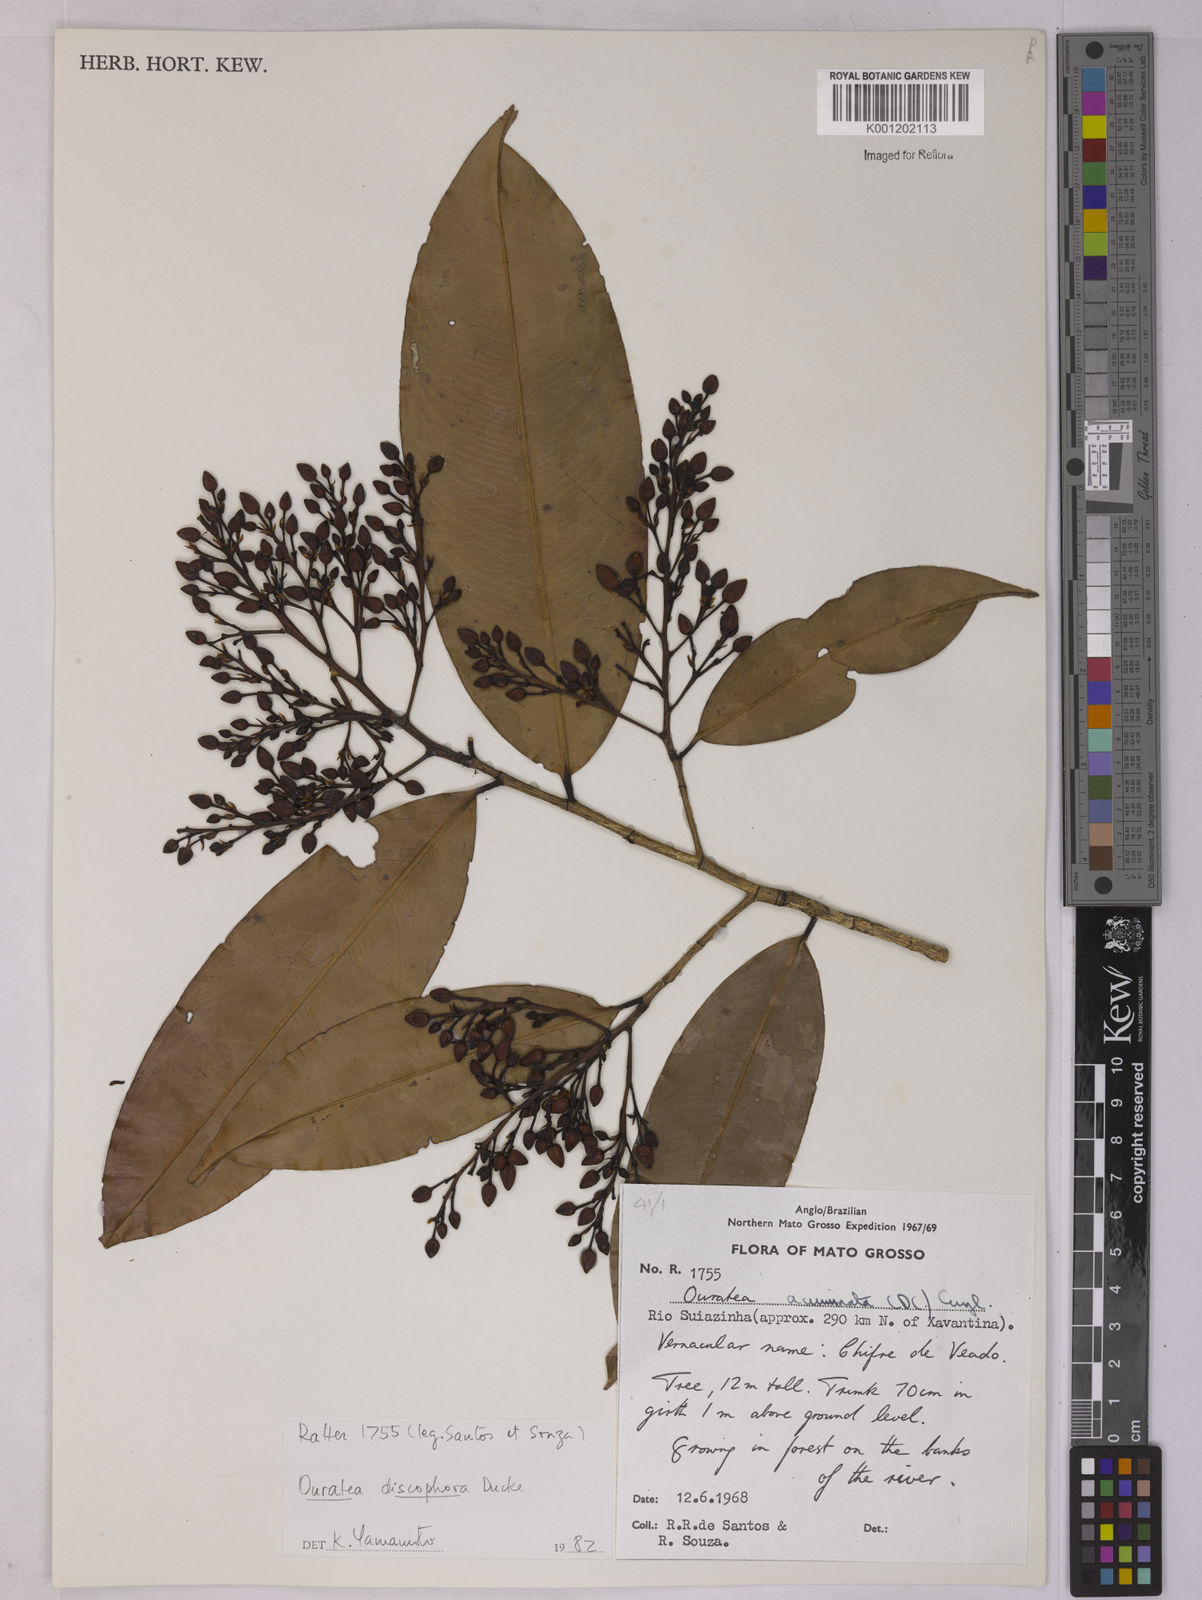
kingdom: Plantae
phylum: Tracheophyta
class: Magnoliopsida
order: Malpighiales
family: Ochnaceae
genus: Ouratea
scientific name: Ouratea discophora
